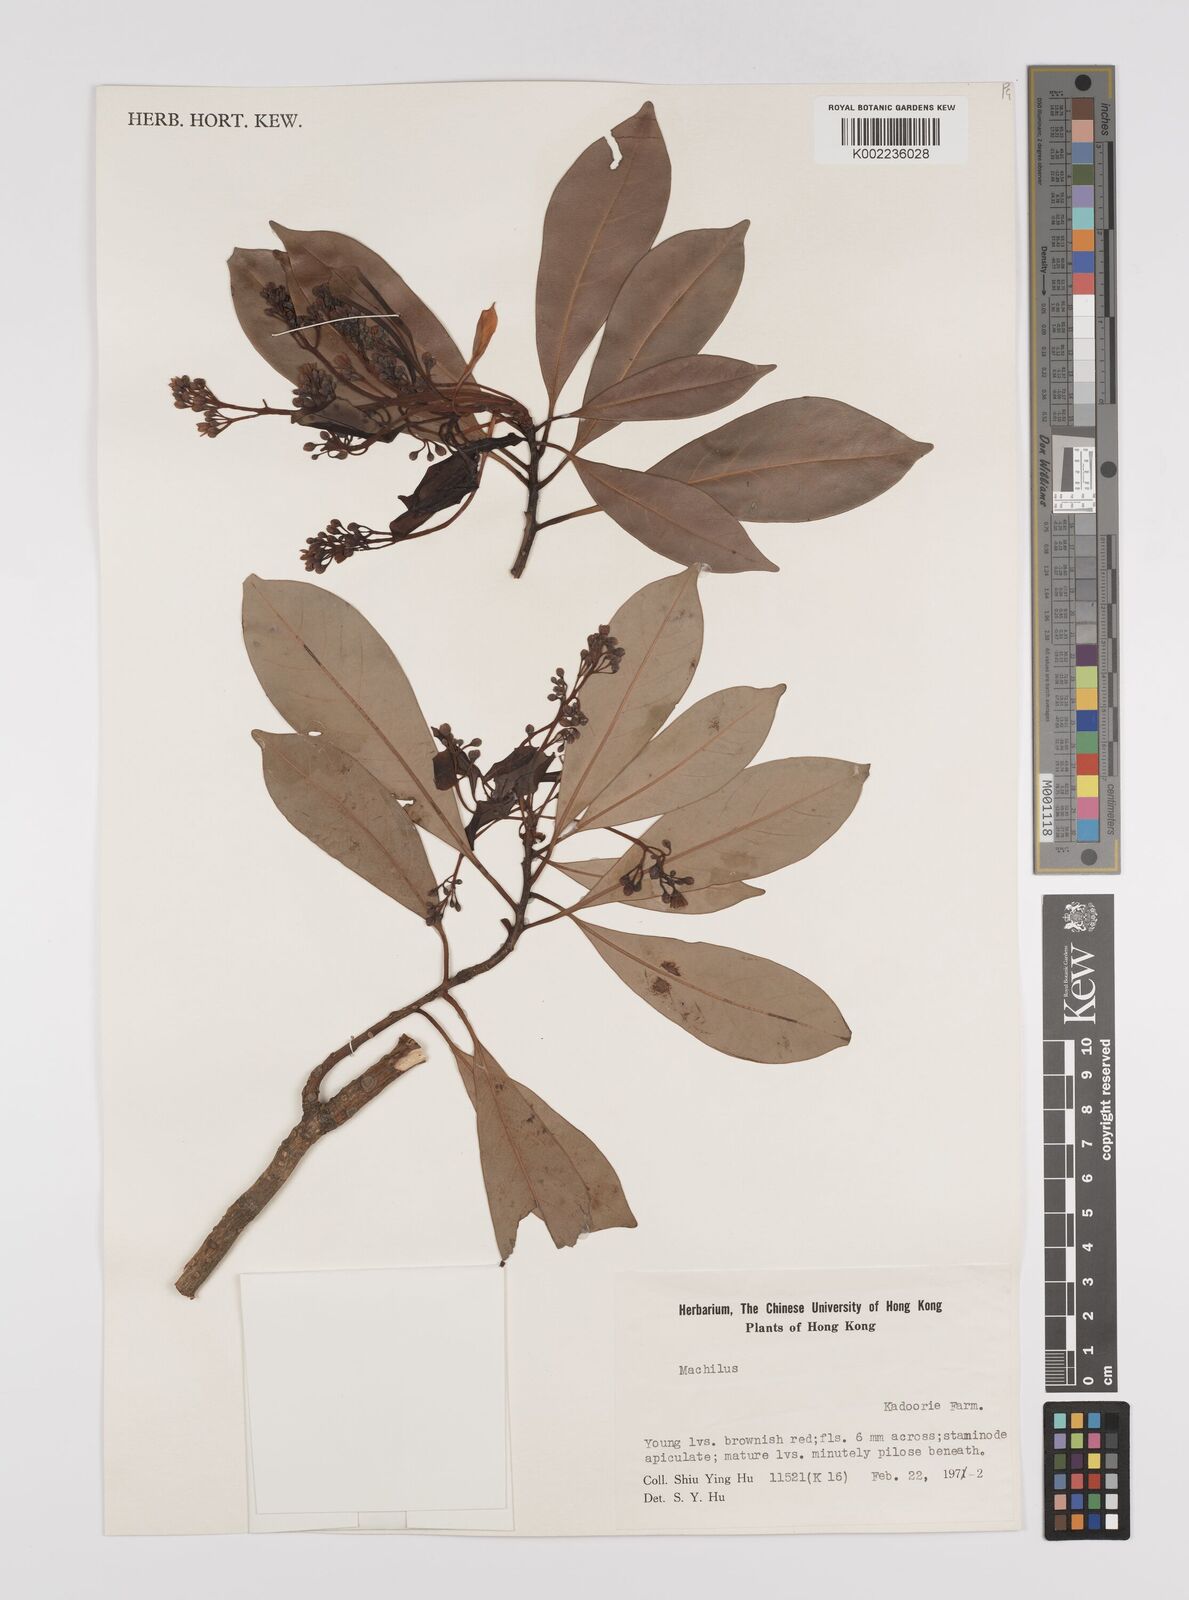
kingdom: Plantae
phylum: Tracheophyta
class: Magnoliopsida
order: Laurales
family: Lauraceae
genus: Persea
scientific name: Persea
